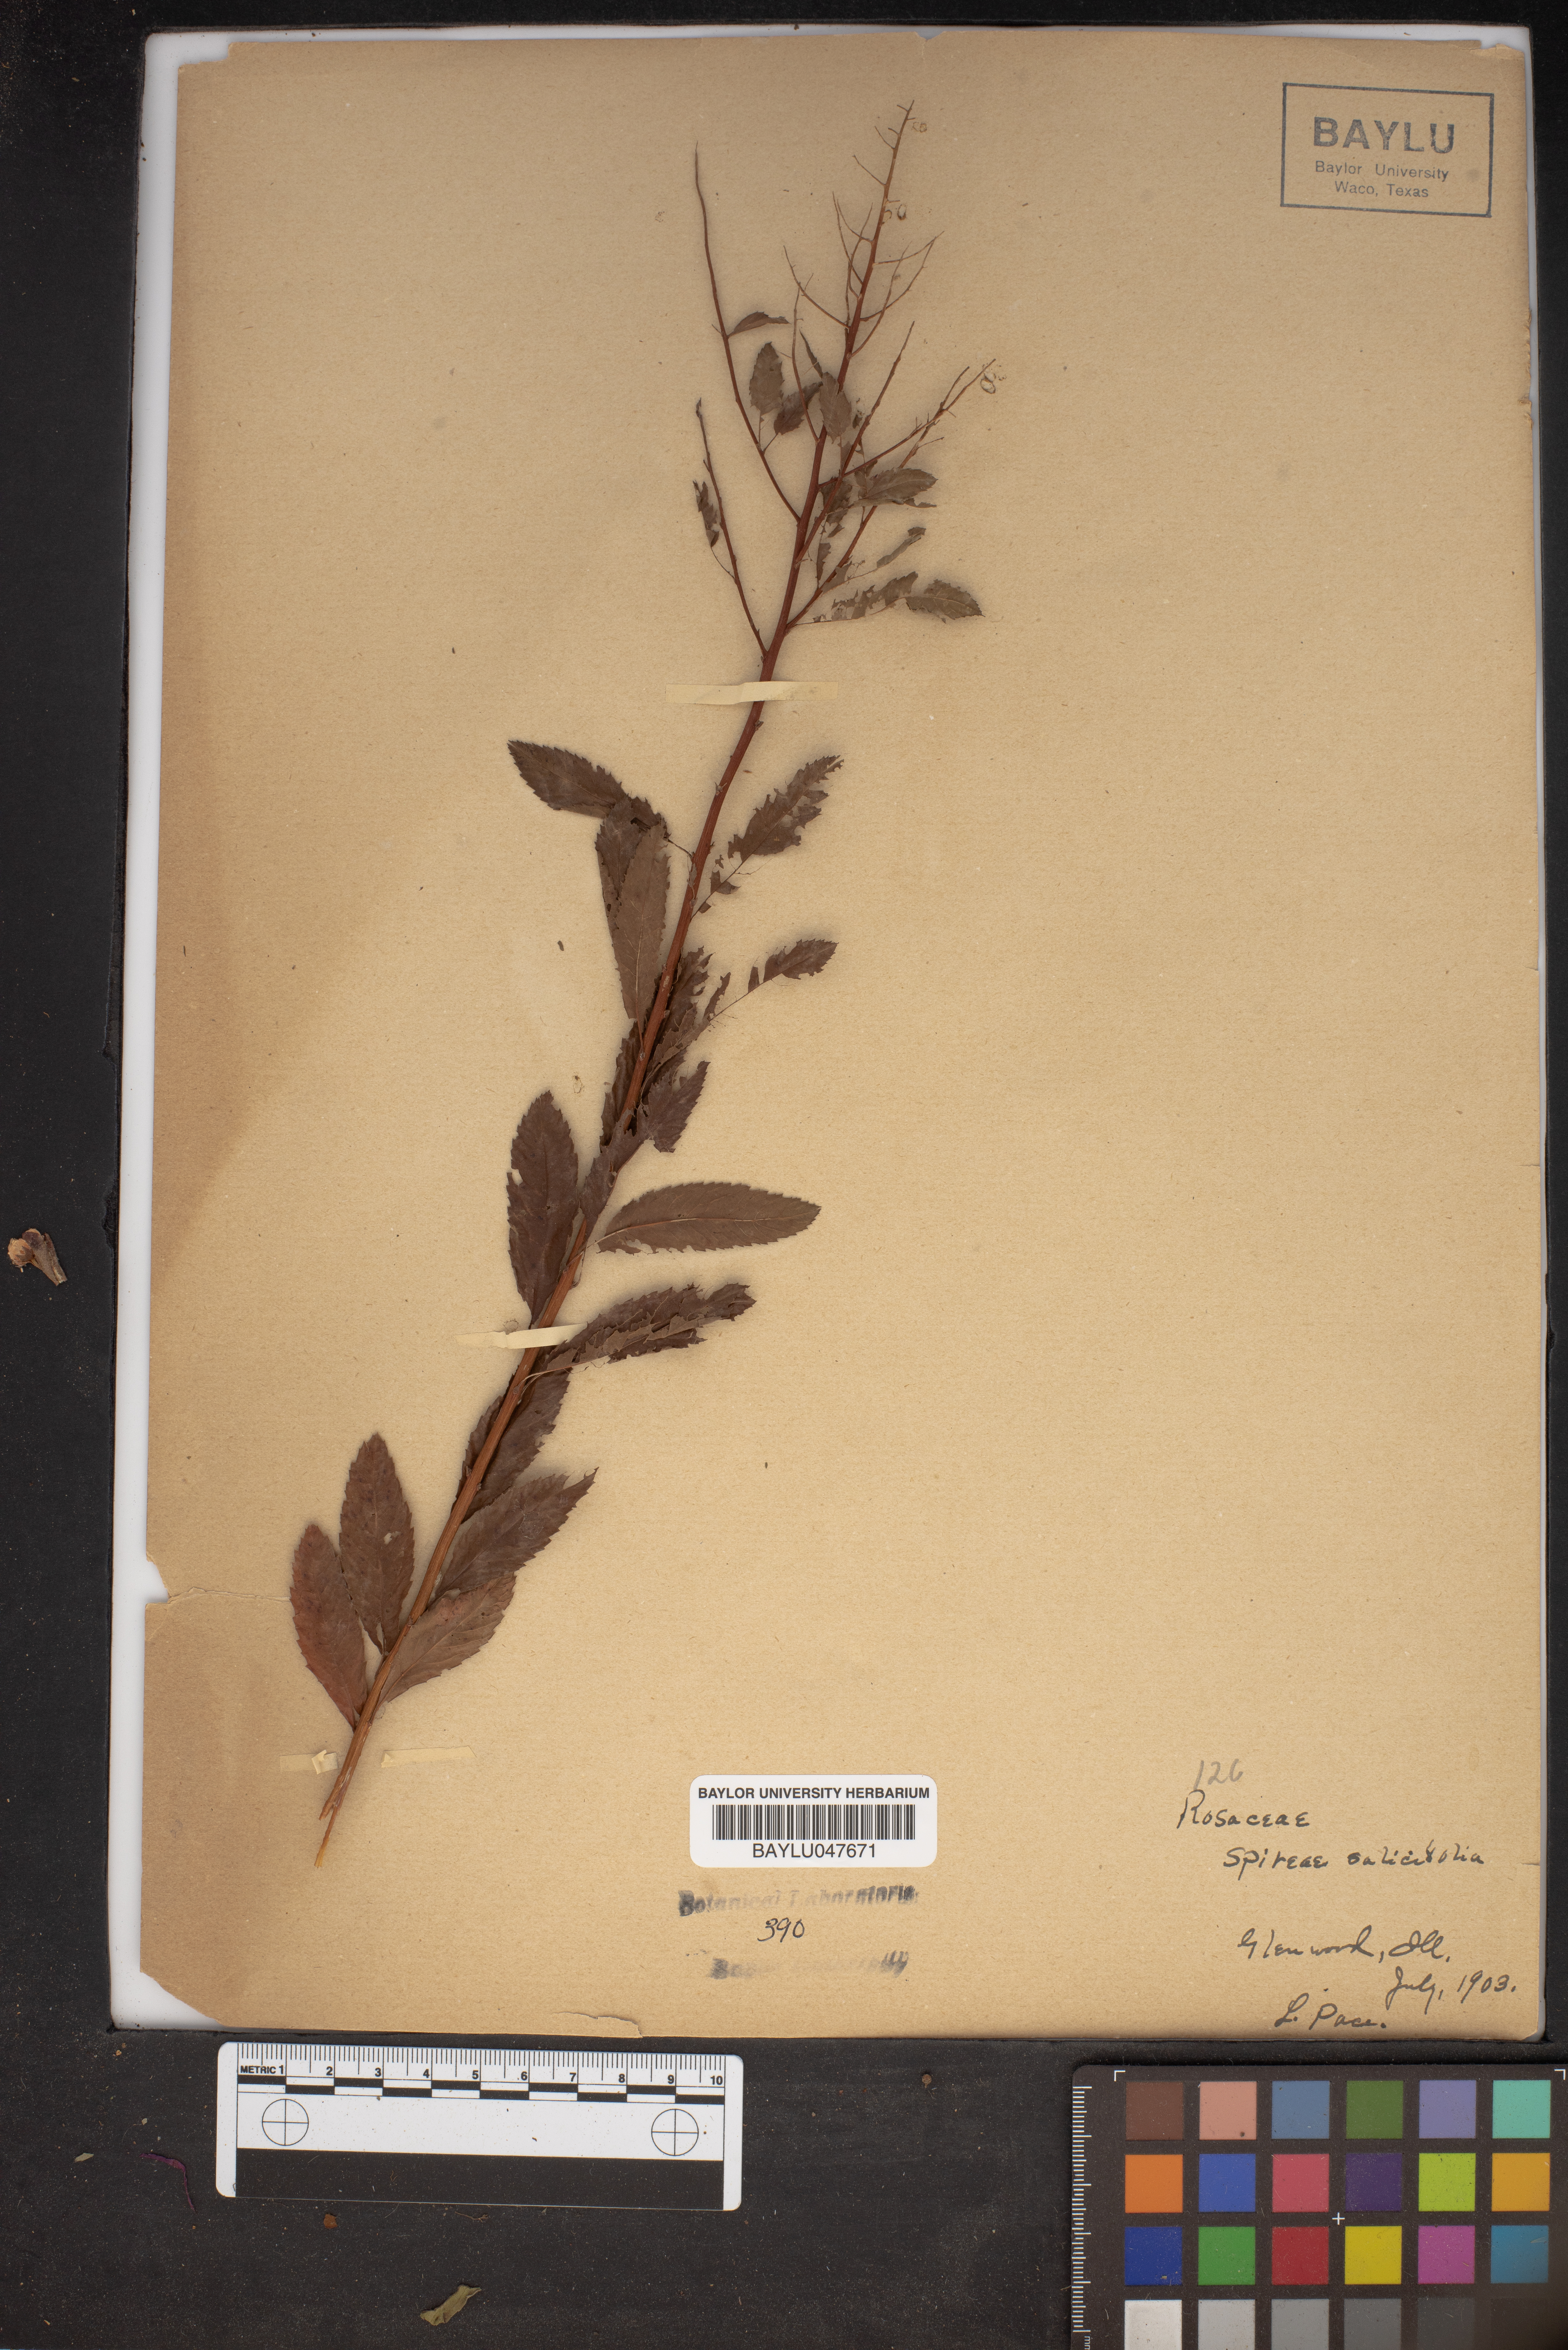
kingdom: Plantae
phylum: Tracheophyta
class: Magnoliopsida
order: Rosales
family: Rosaceae
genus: Spiraea
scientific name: Spiraea salicifolia
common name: Bridewort
